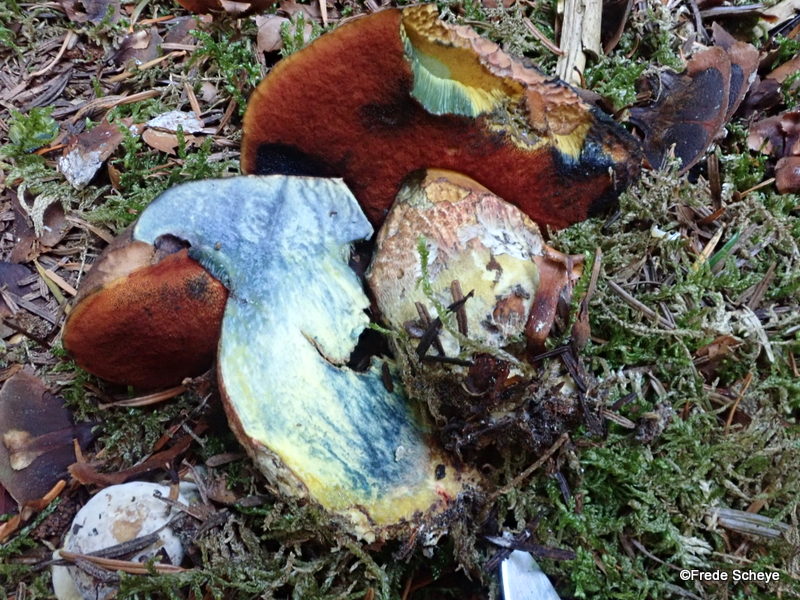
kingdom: Fungi
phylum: Basidiomycota
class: Agaricomycetes
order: Boletales
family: Boletaceae
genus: Neoboletus
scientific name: Neoboletus erythropus
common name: punktstokket indigorørhat
